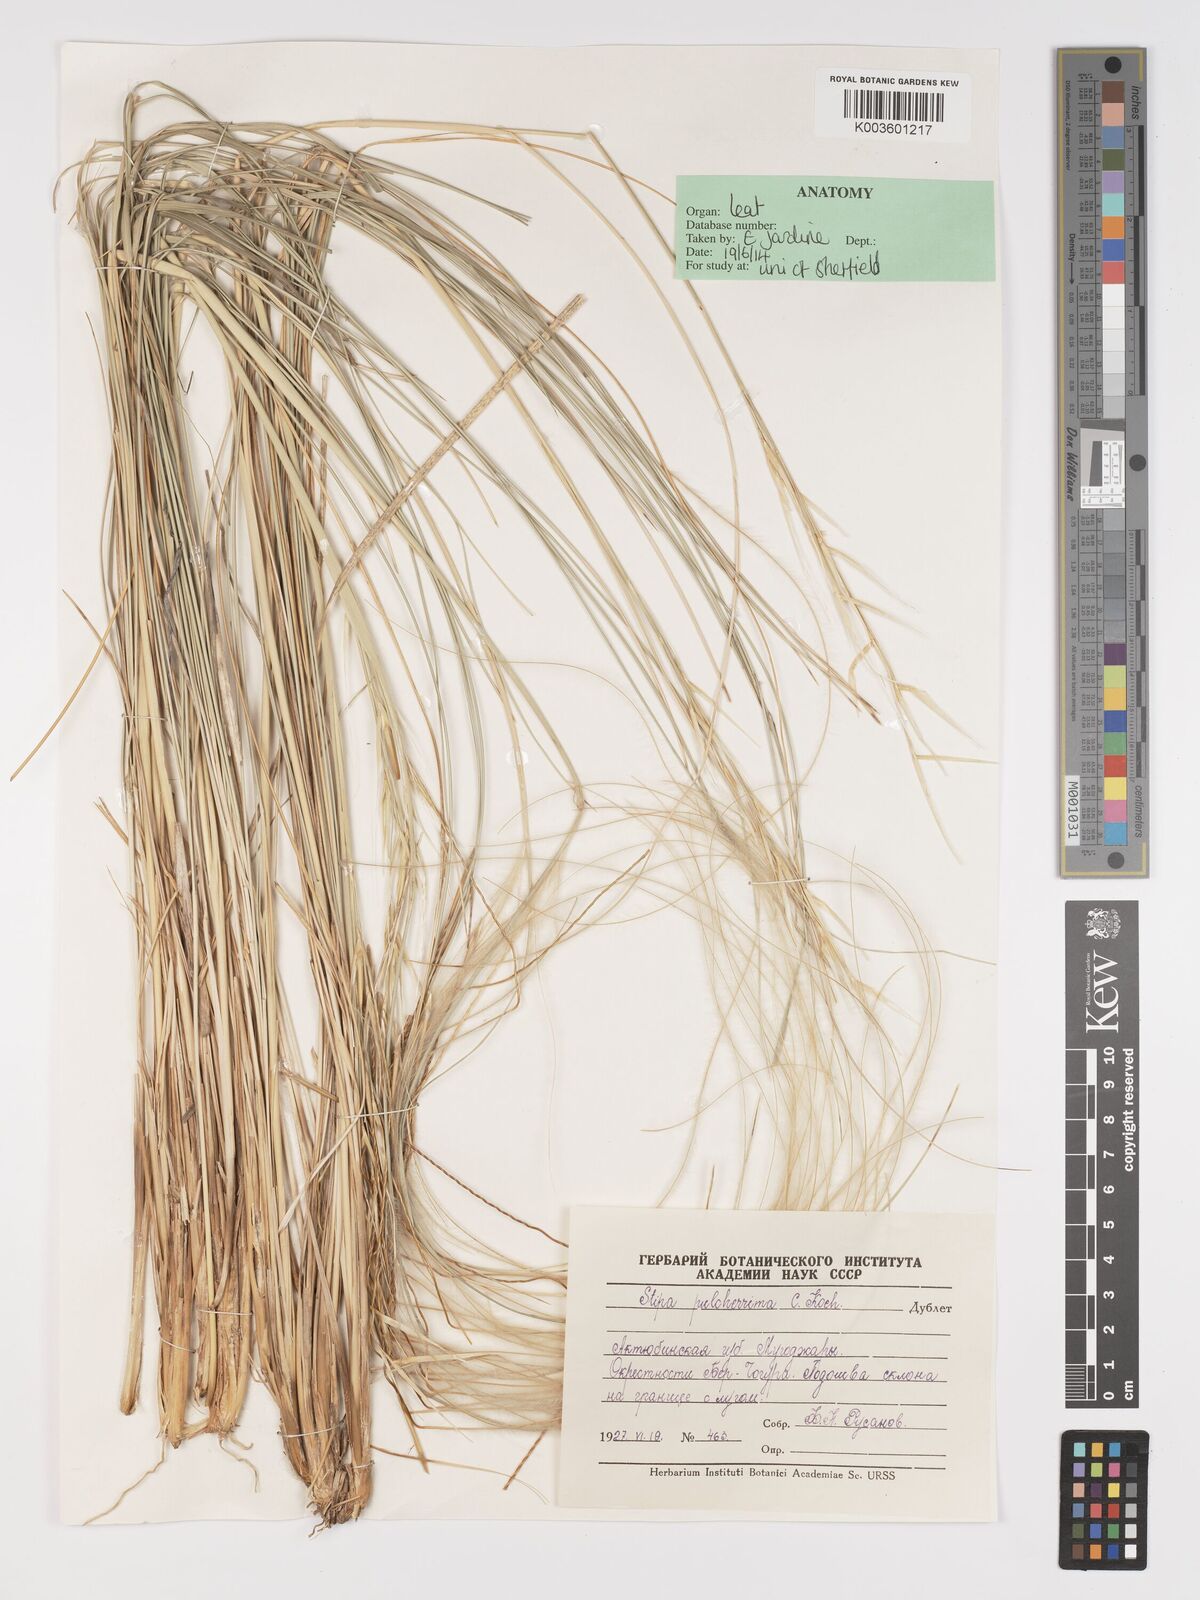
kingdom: Plantae
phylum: Tracheophyta
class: Liliopsida
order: Poales
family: Poaceae
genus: Stipa
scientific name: Stipa pulcherrima
